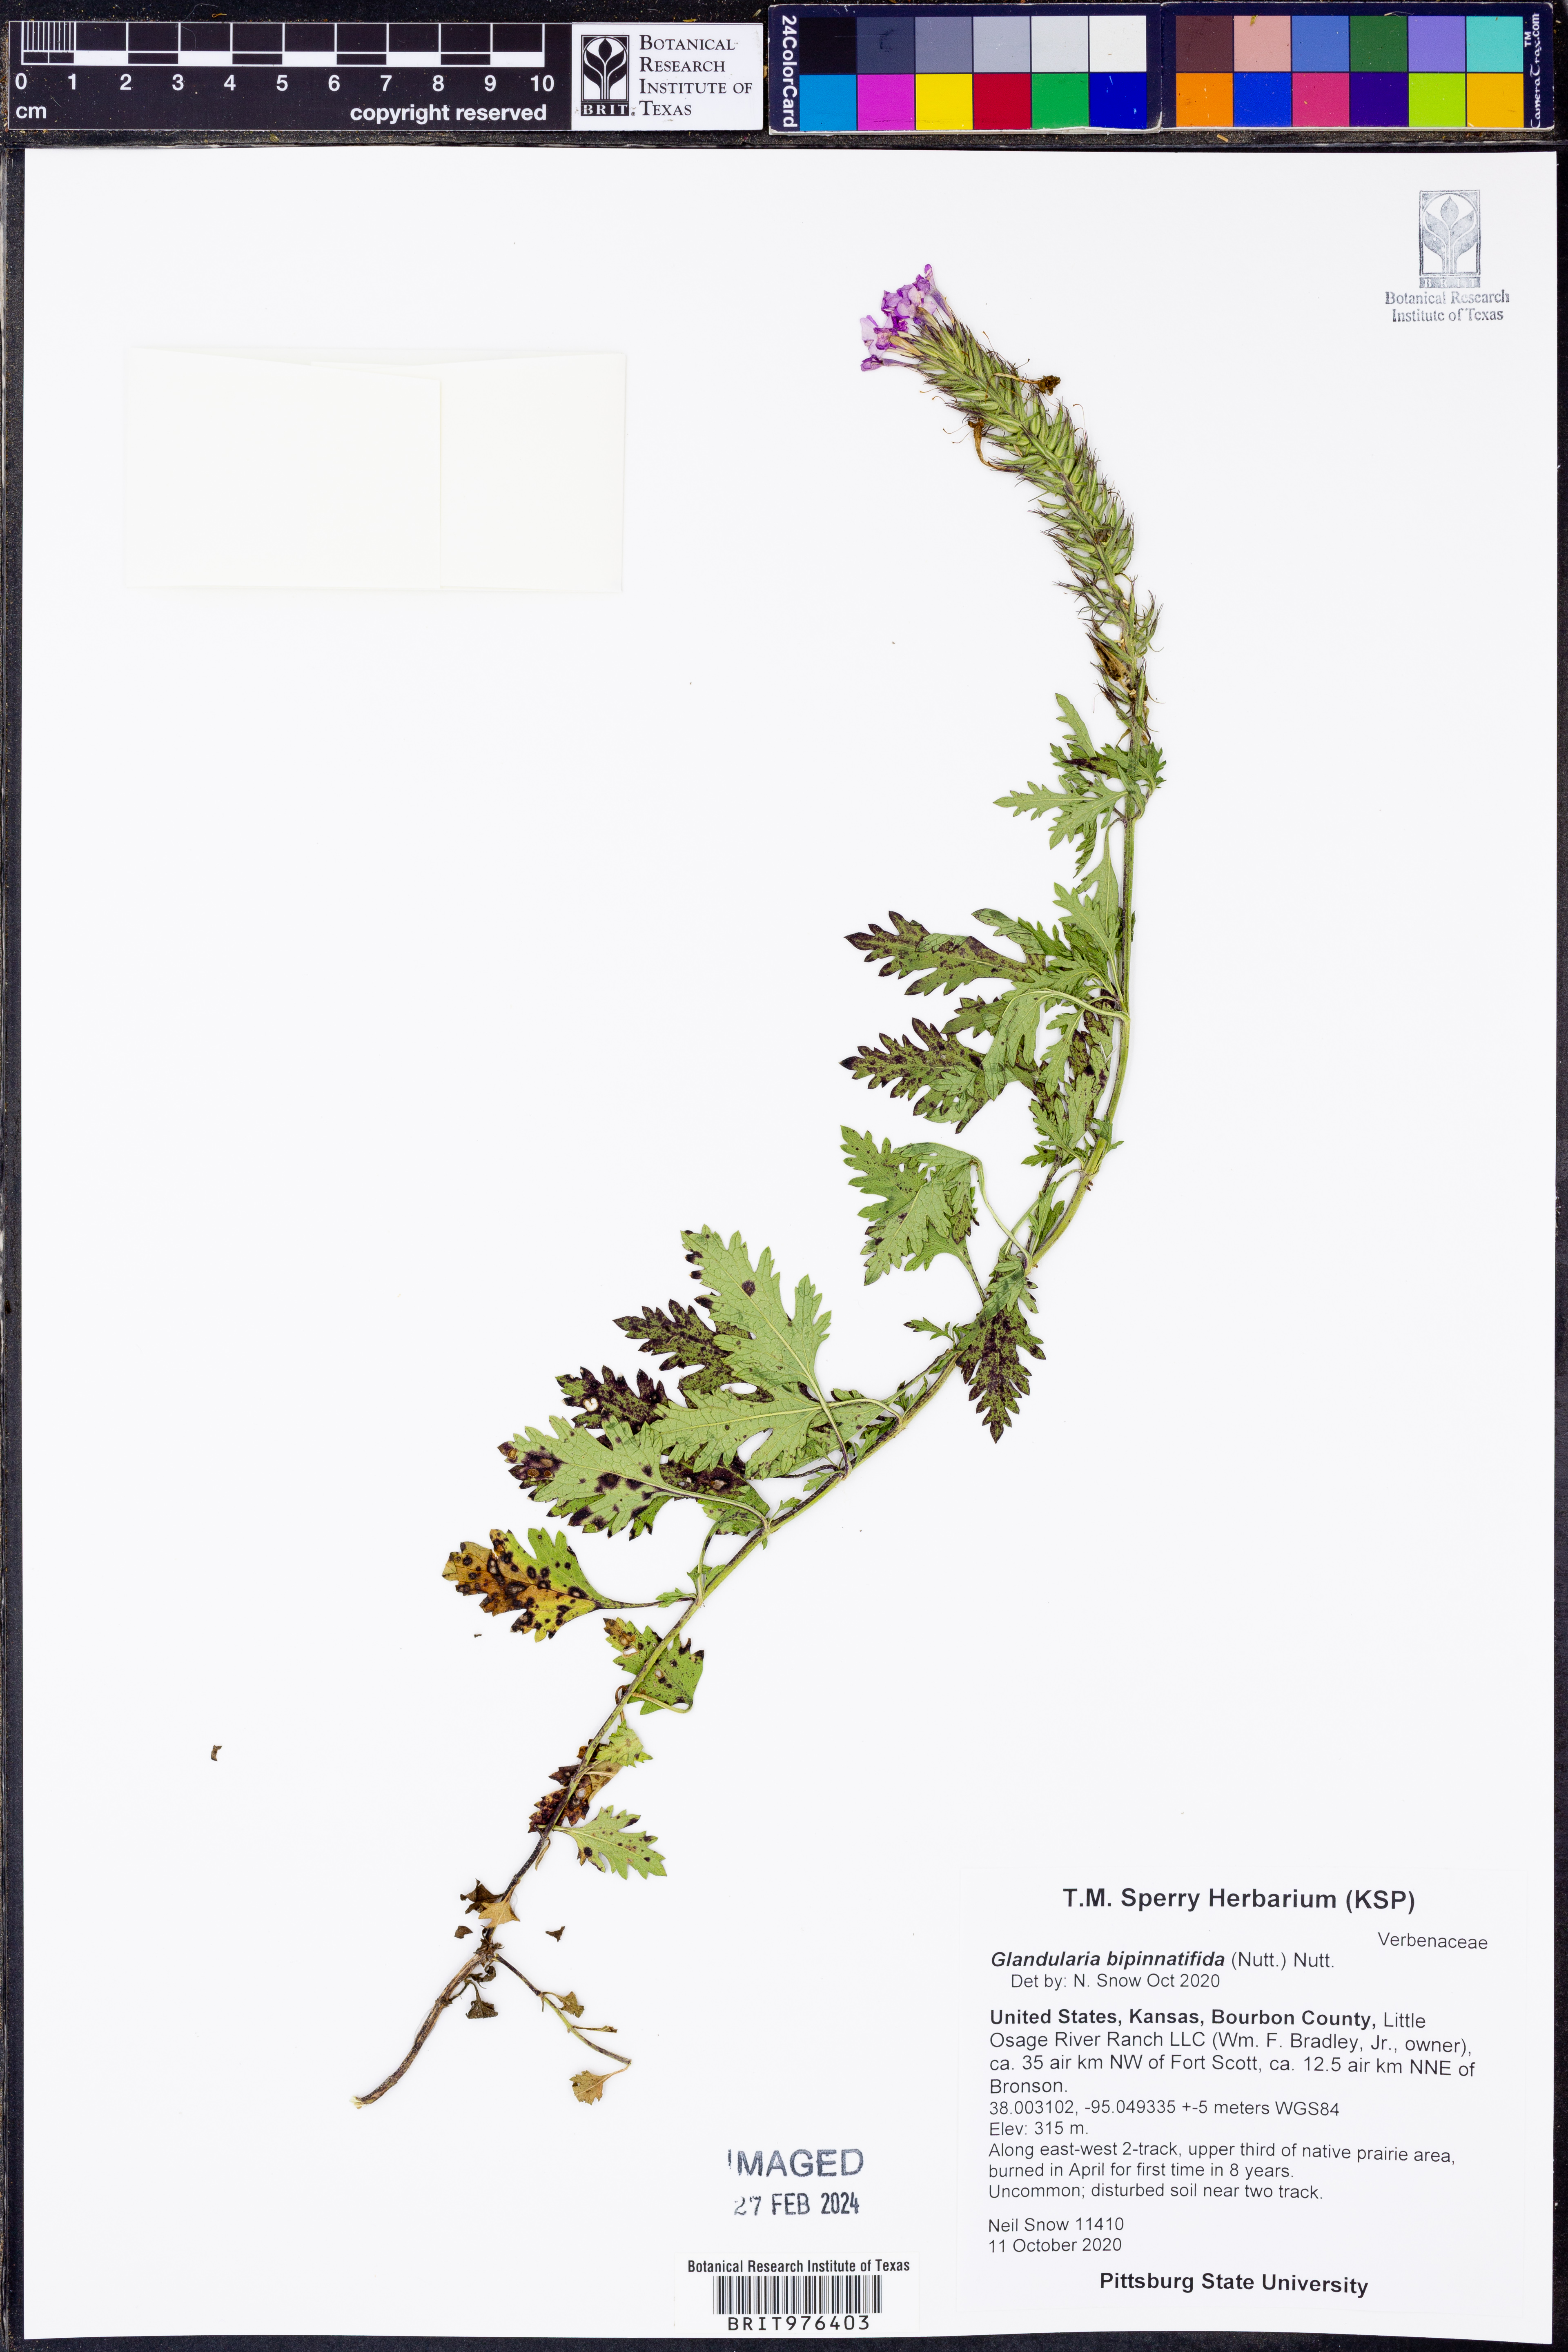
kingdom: Plantae
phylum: Tracheophyta
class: Magnoliopsida
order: Lamiales
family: Verbenaceae
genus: Verbena
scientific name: Verbena bipinnatifida
